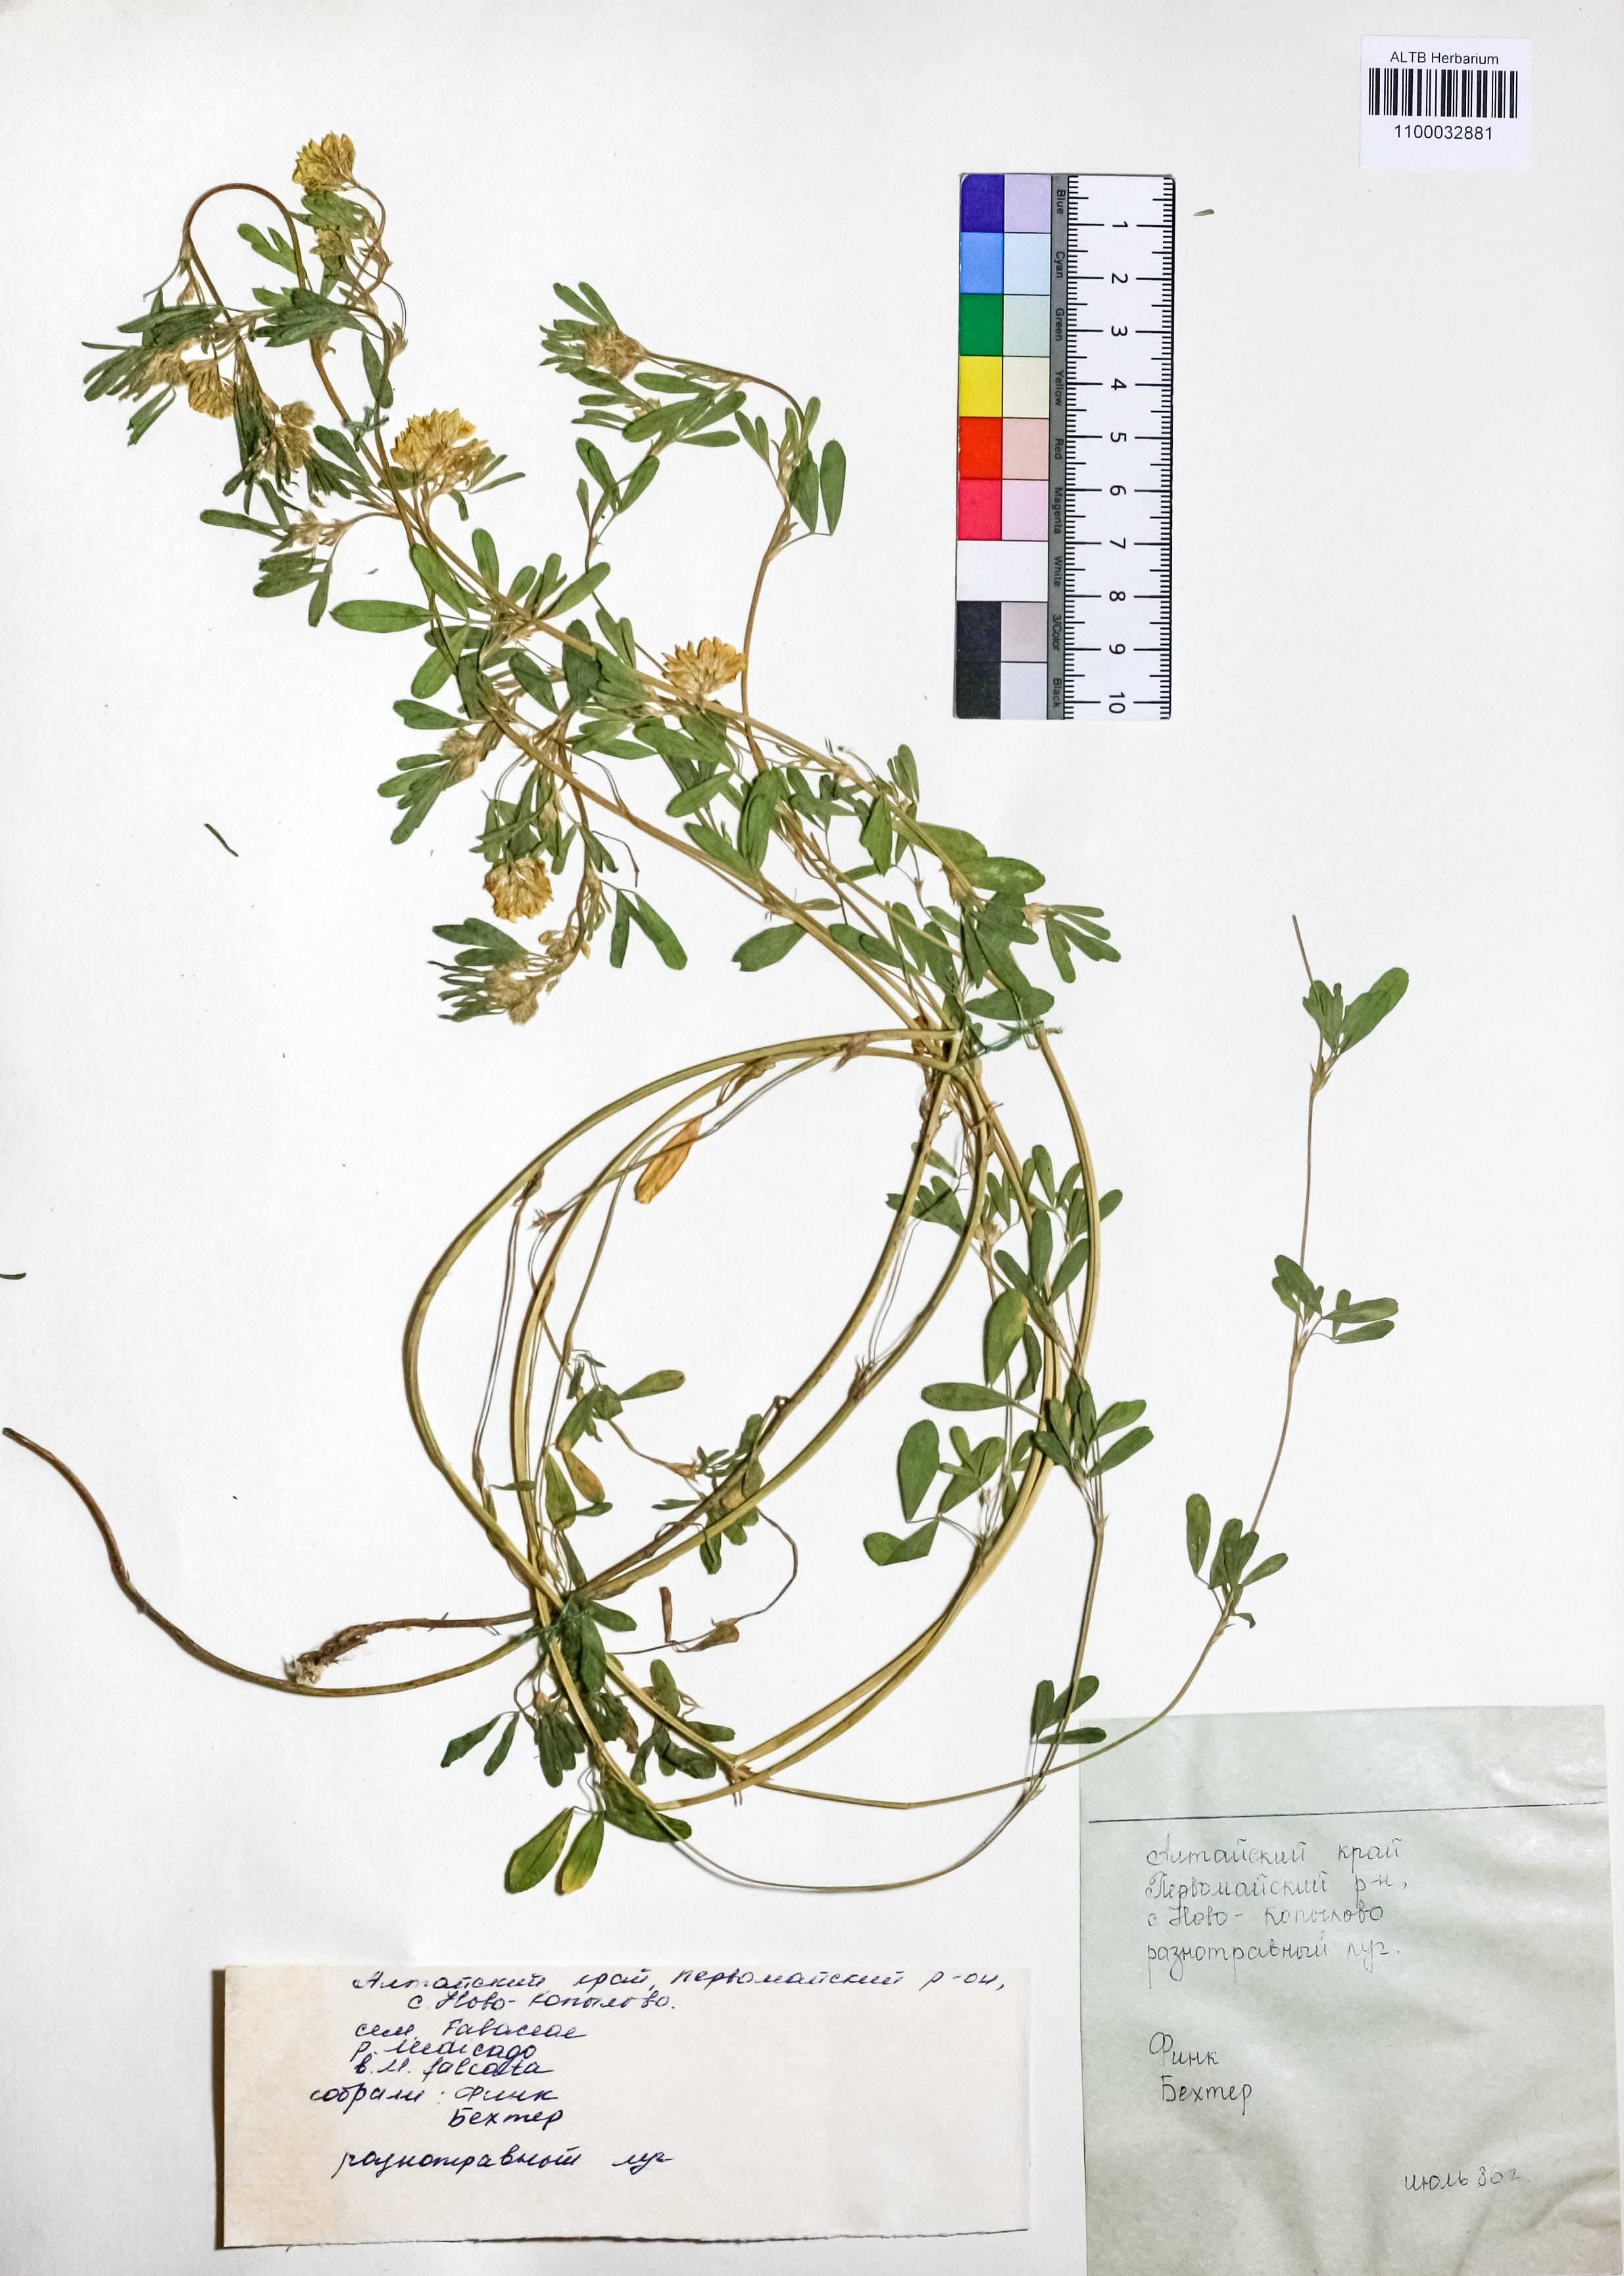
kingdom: Plantae
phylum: Tracheophyta
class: Magnoliopsida
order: Fabales
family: Fabaceae
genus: Medicago
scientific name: Medicago falcata
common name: Sickle medick
